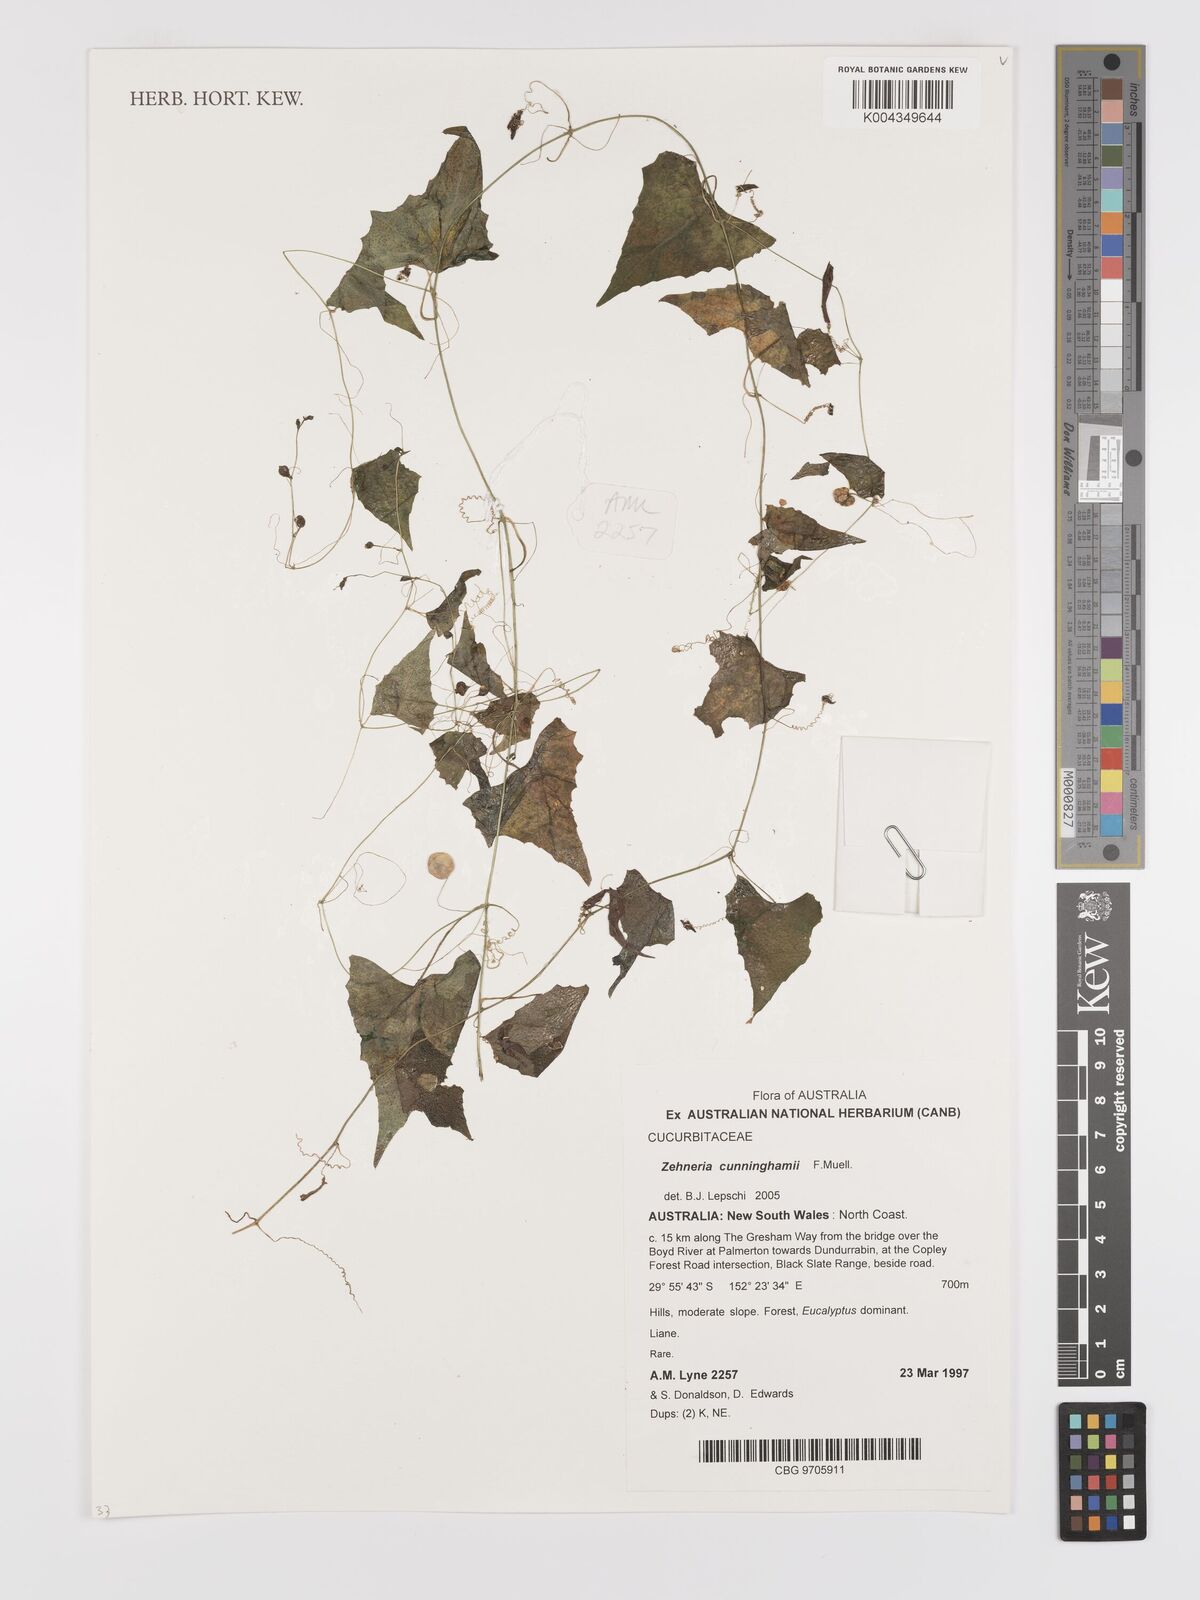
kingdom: Plantae
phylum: Tracheophyta
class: Magnoliopsida
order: Cucurbitales
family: Cucurbitaceae
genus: Zehneria
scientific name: Zehneria cunninghamii
